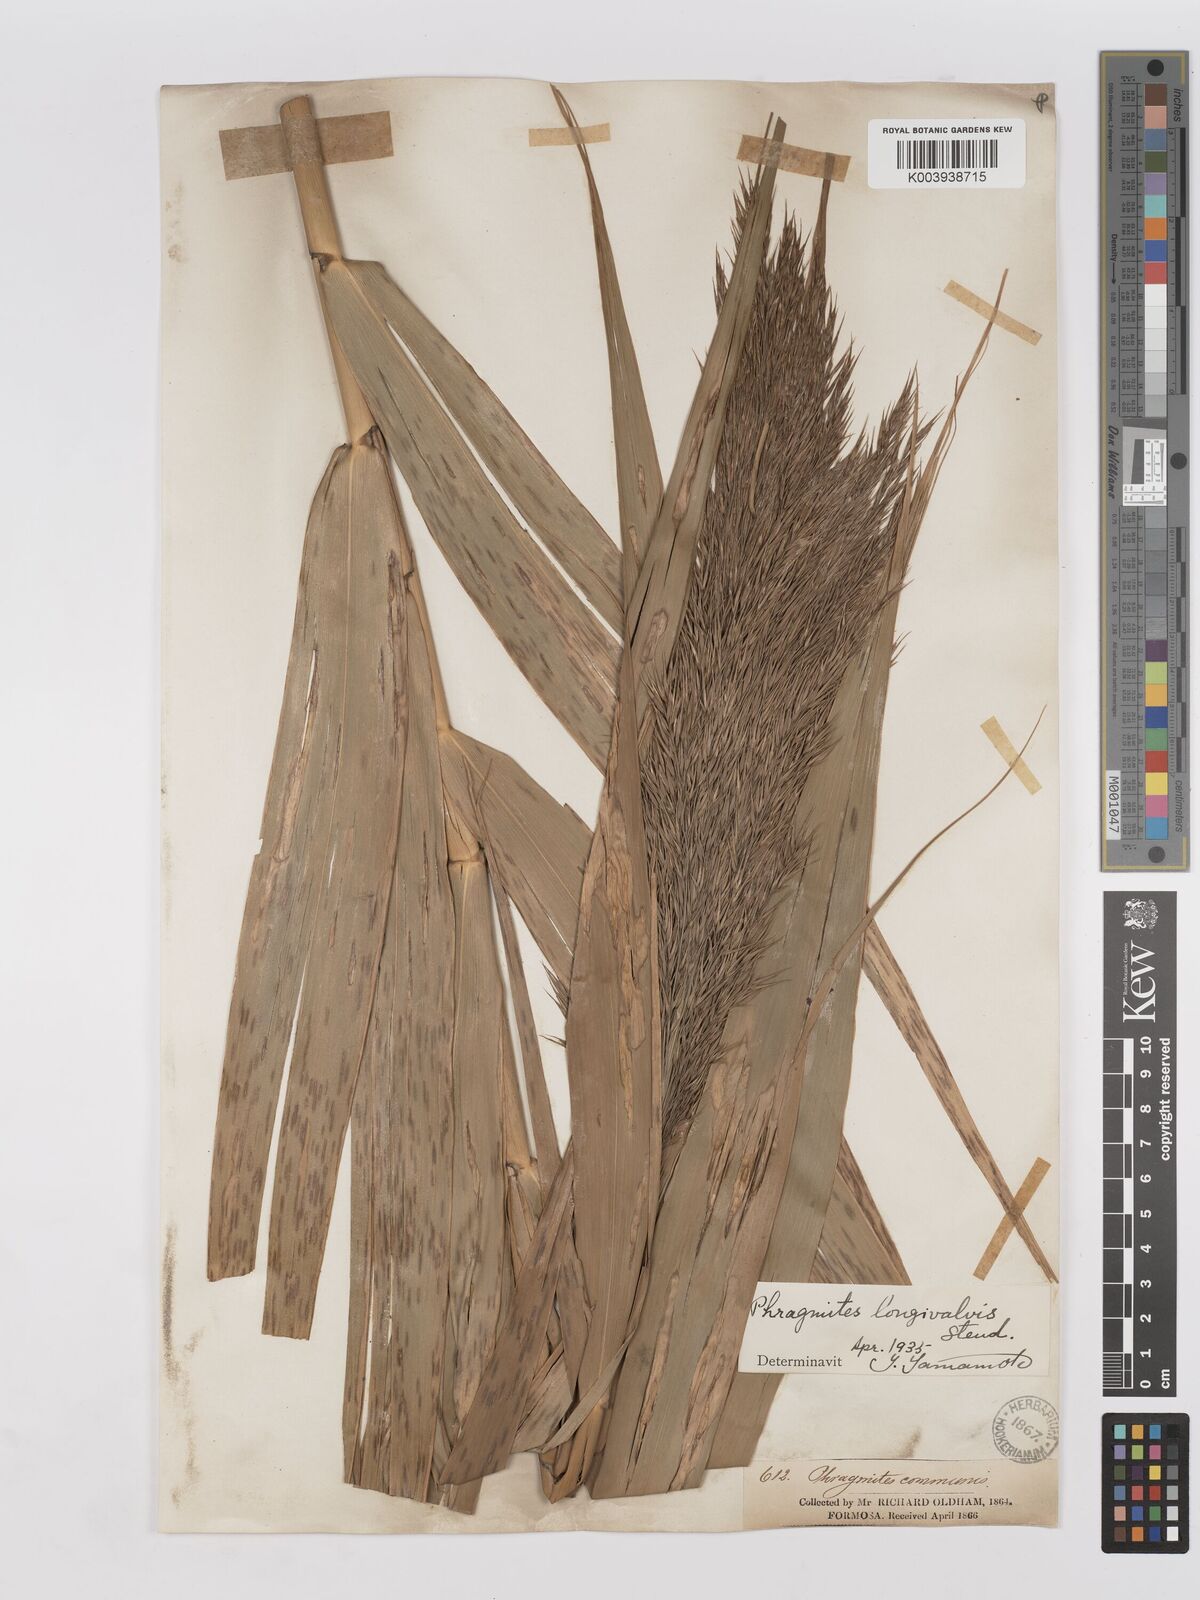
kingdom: Plantae
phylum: Tracheophyta
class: Liliopsida
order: Poales
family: Poaceae
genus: Phragmites
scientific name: Phragmites australis
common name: Common reed
